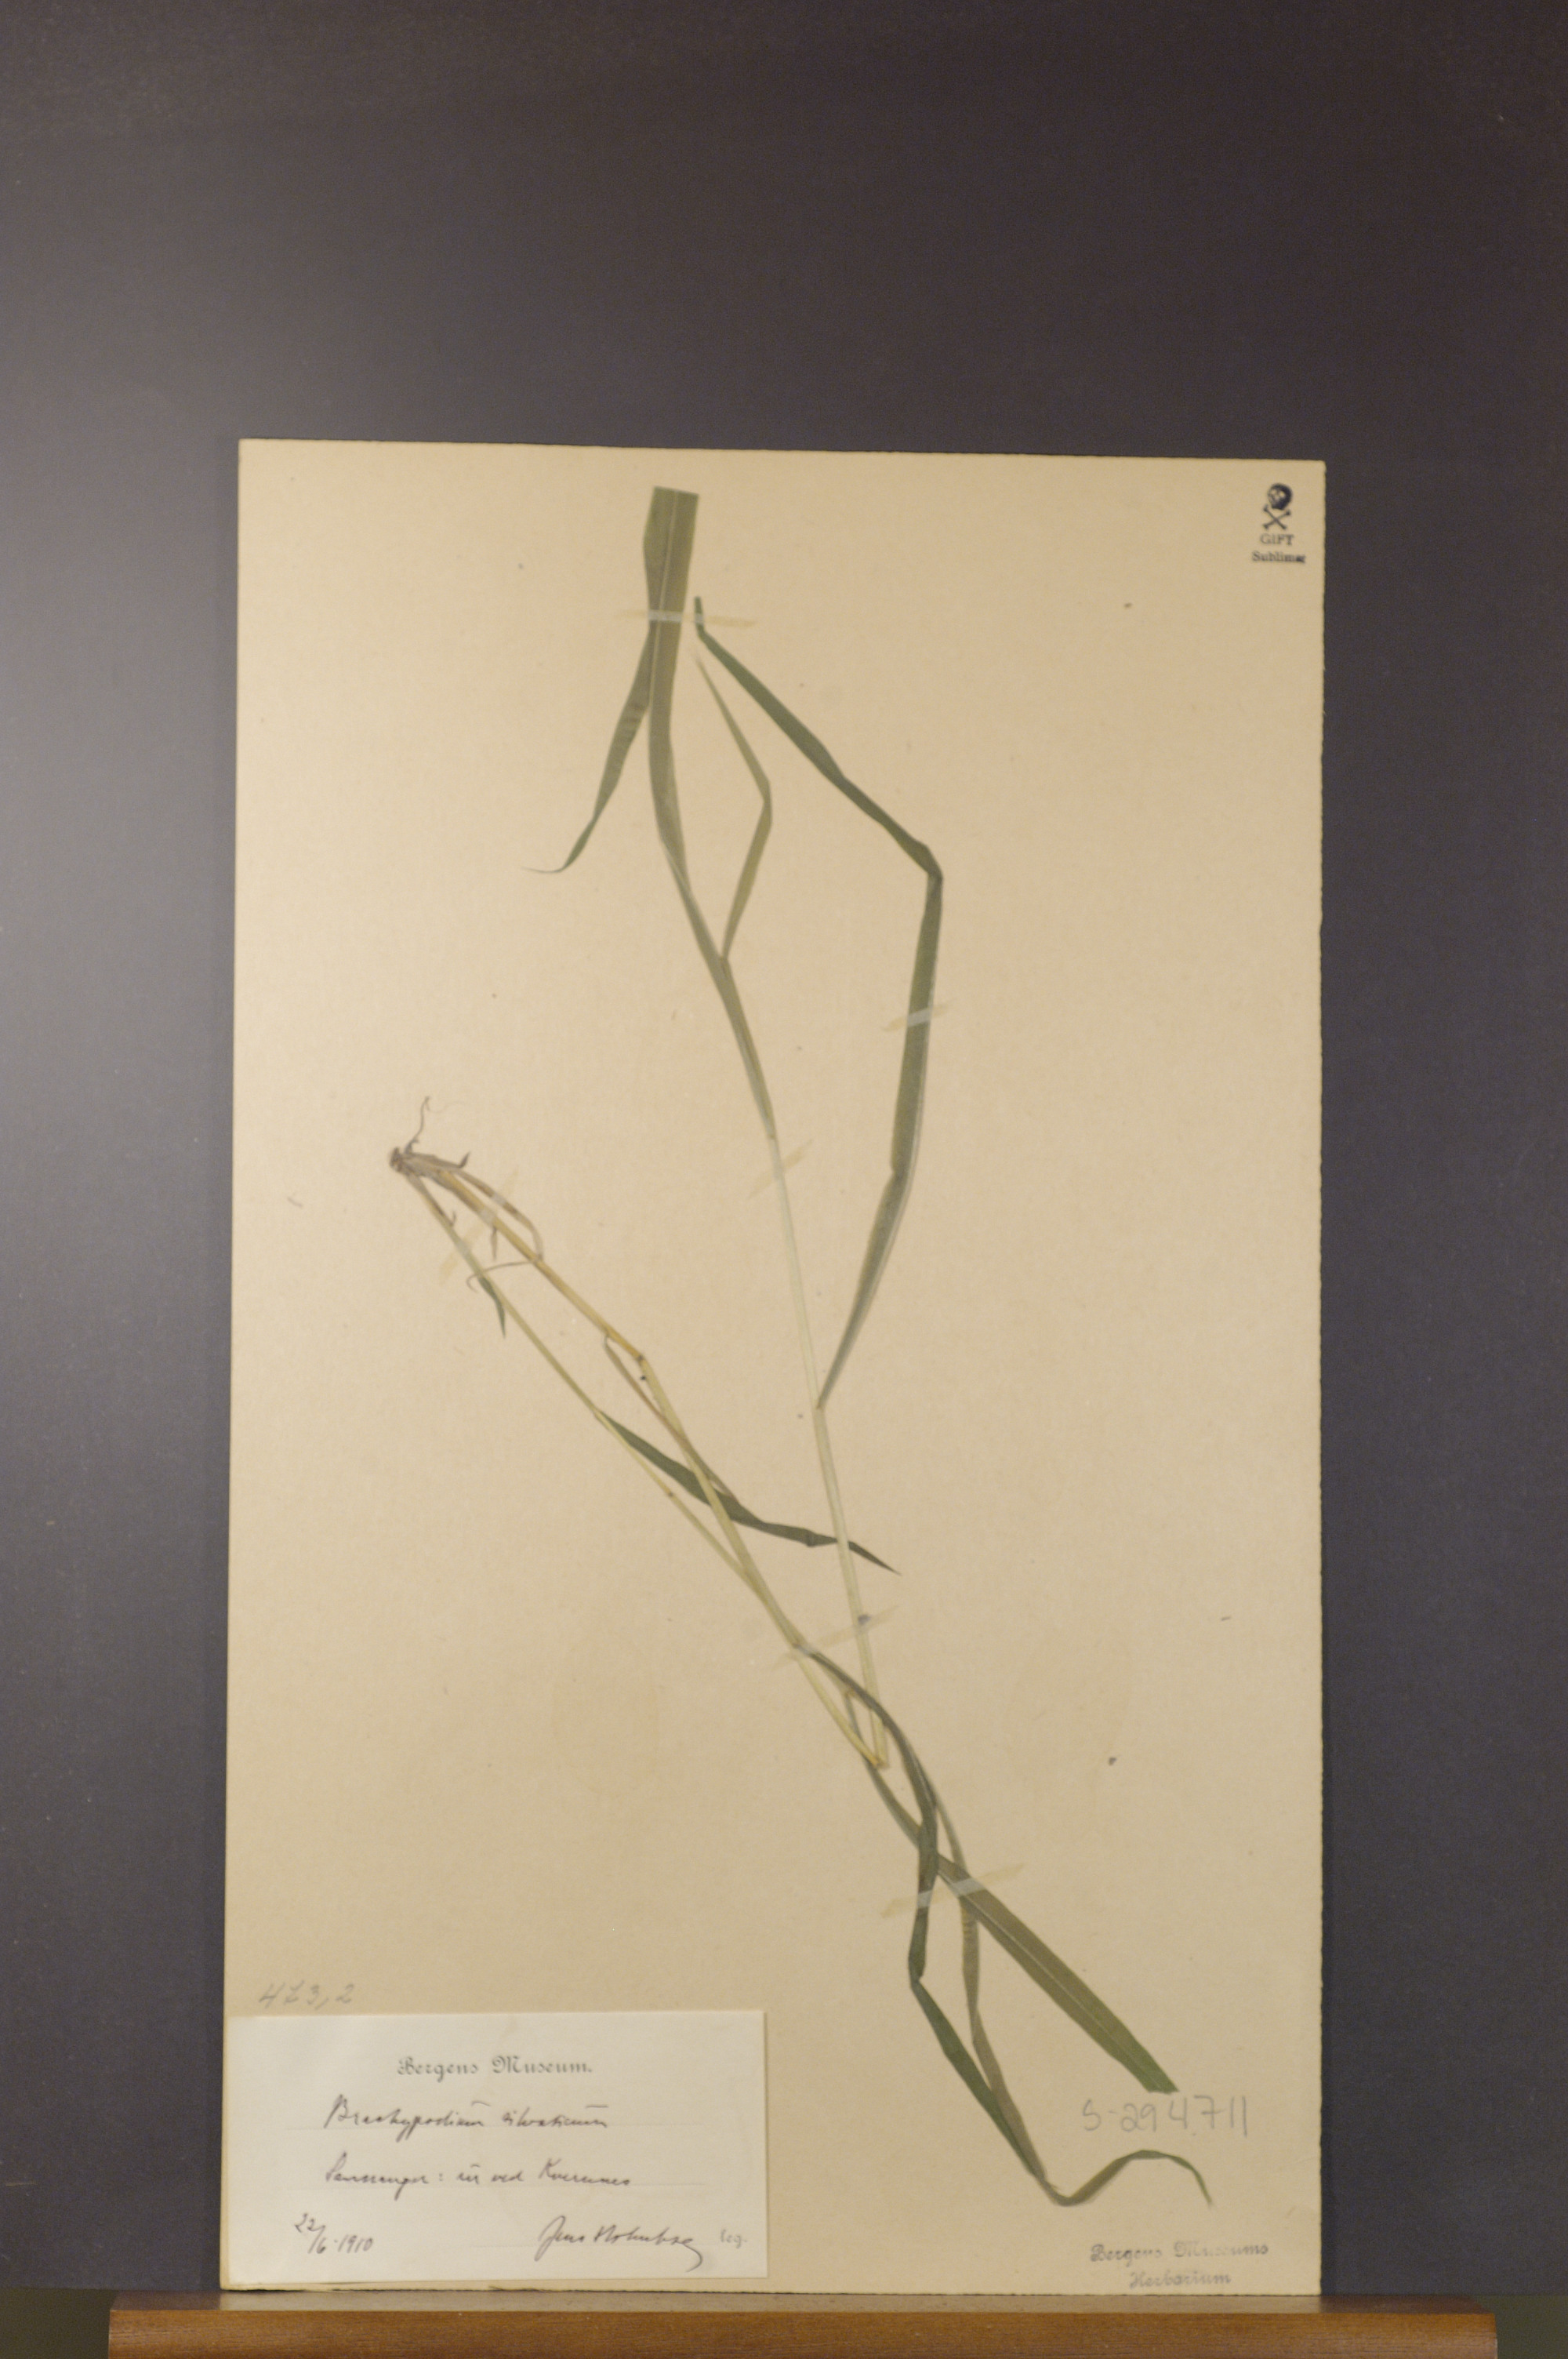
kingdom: Plantae
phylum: Tracheophyta
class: Liliopsida
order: Poales
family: Poaceae
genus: Brachypodium
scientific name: Brachypodium sylvaticum
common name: False-brome
